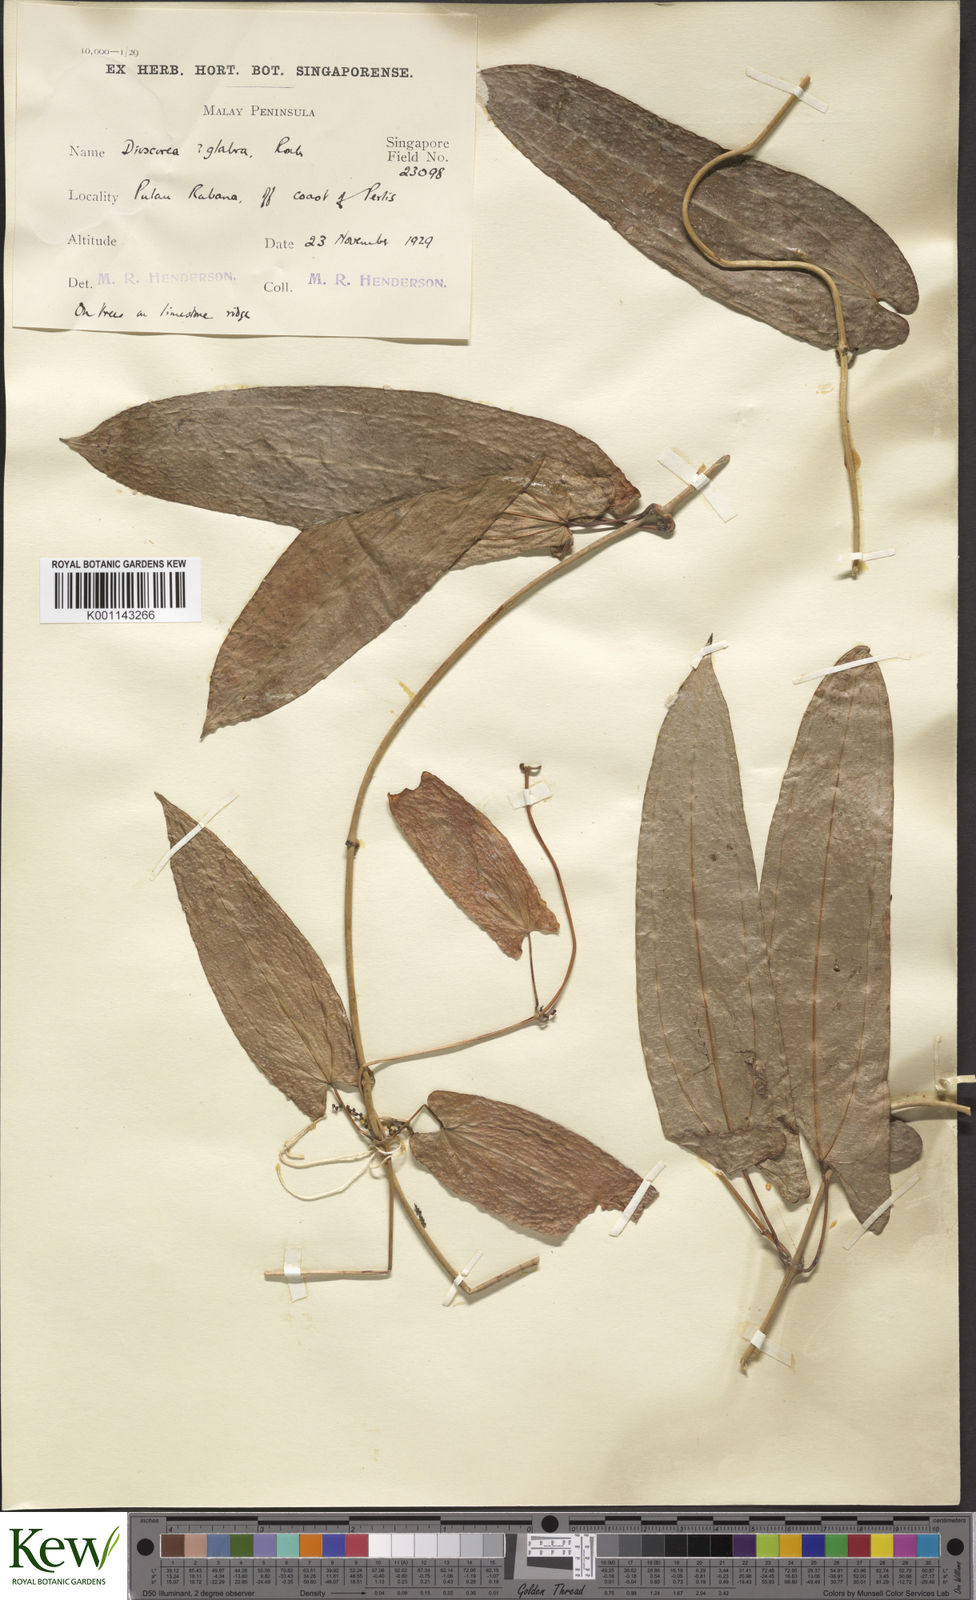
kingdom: Plantae
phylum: Tracheophyta
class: Liliopsida
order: Dioscoreales
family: Dioscoreaceae
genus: Dioscorea
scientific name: Dioscorea glabra
